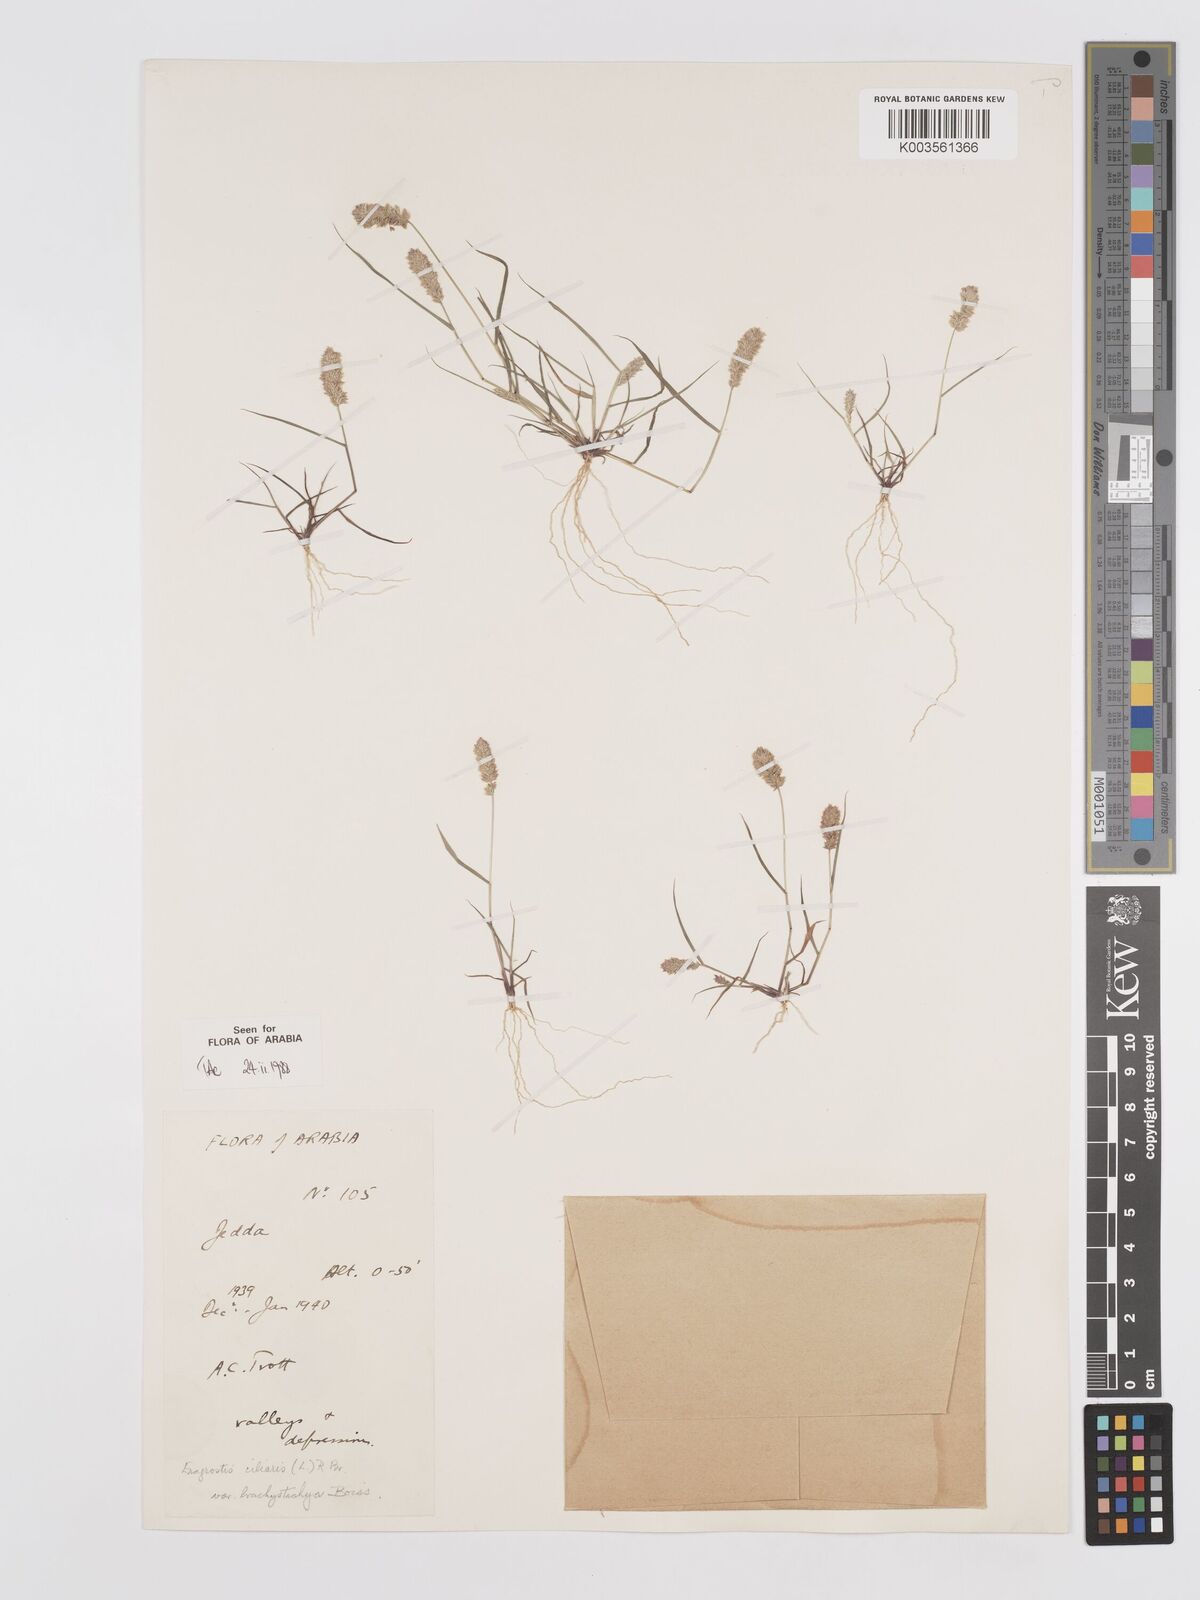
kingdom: Plantae
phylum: Tracheophyta
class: Liliopsida
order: Poales
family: Poaceae
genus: Eragrostis
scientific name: Eragrostis ciliaris
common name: Gophertail lovegrass
